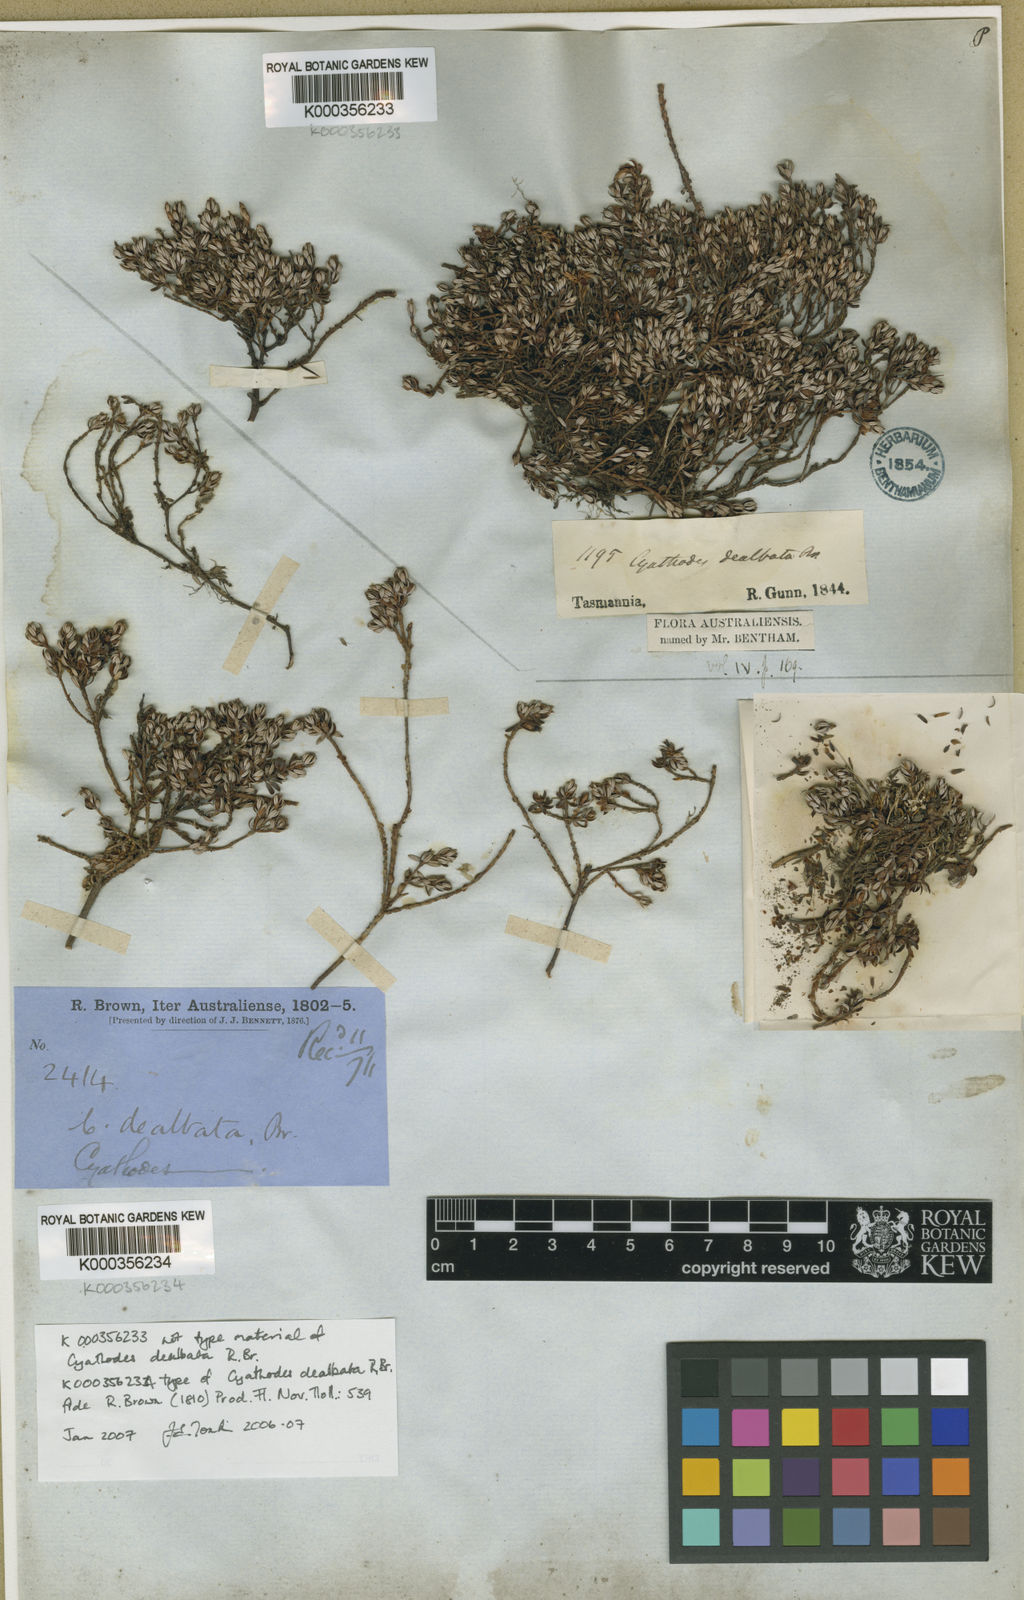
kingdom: Plantae
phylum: Tracheophyta
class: Magnoliopsida
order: Ericales
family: Ericaceae
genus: Montitega
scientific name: Montitega dealbata
